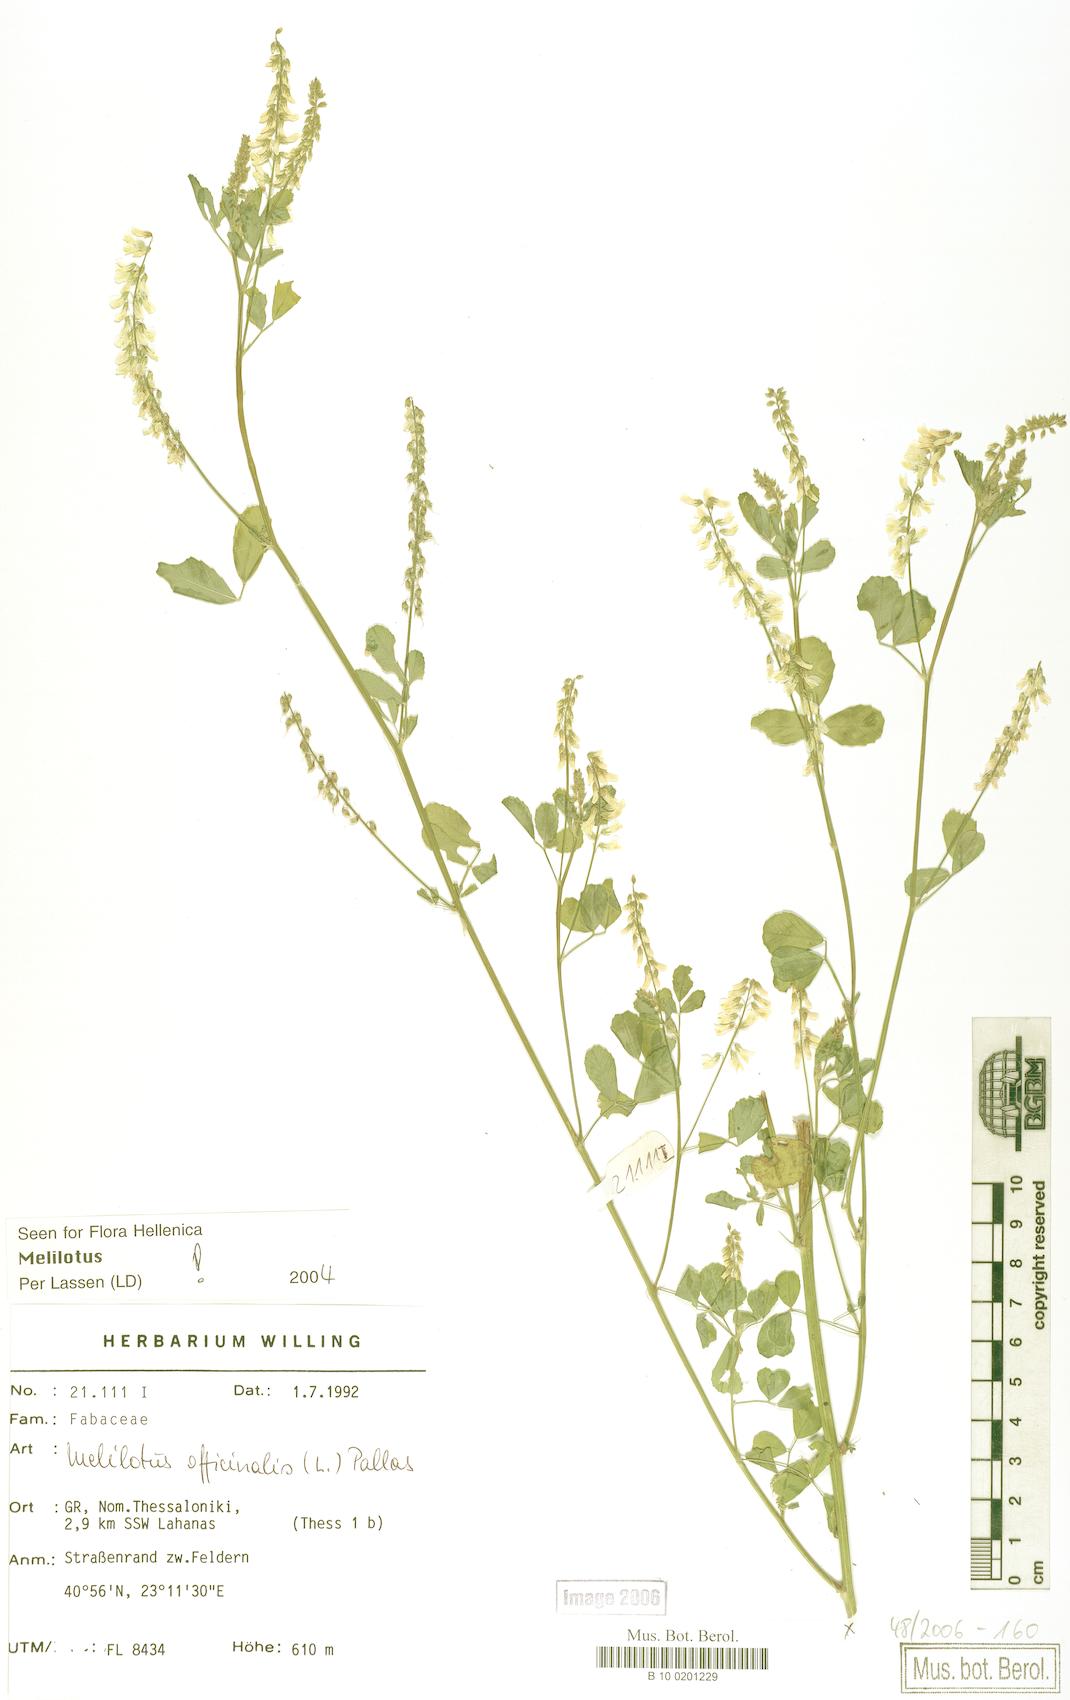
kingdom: Plantae
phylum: Tracheophyta
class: Magnoliopsida
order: Fabales
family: Fabaceae
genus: Melilotus
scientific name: Melilotus officinalis
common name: Sweetclover
